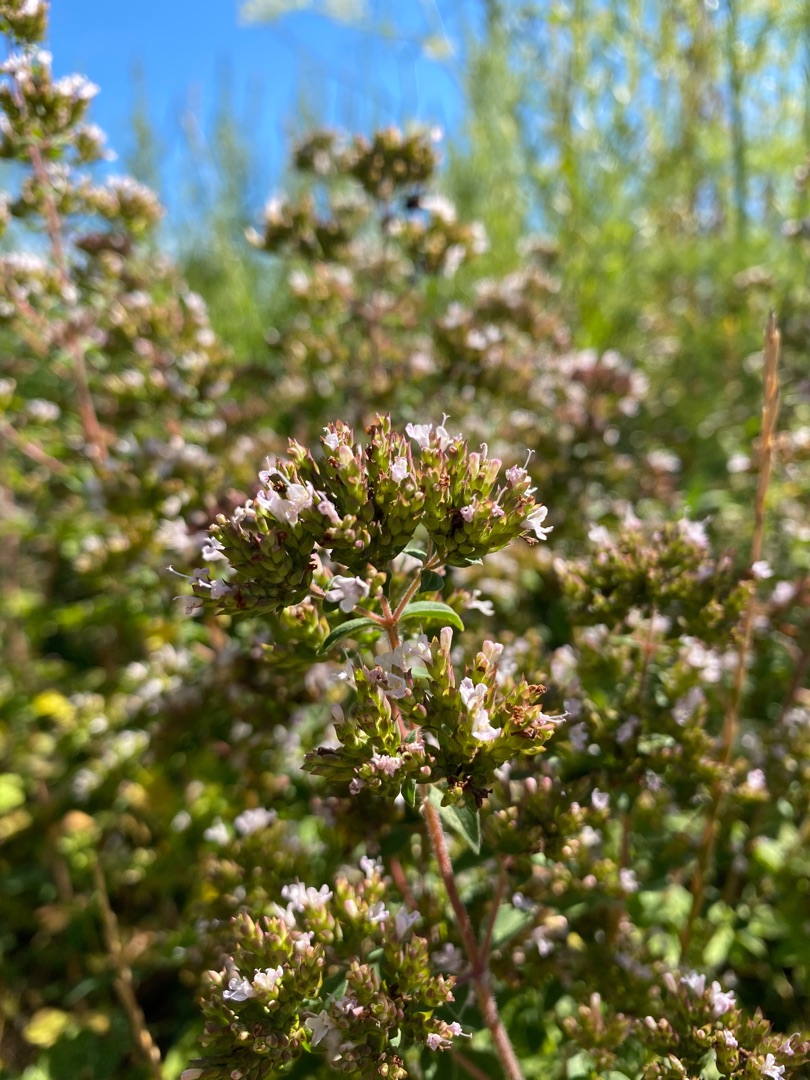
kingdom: Plantae
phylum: Tracheophyta
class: Magnoliopsida
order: Lamiales
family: Lamiaceae
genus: Origanum
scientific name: Origanum vulgare
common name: Merian
